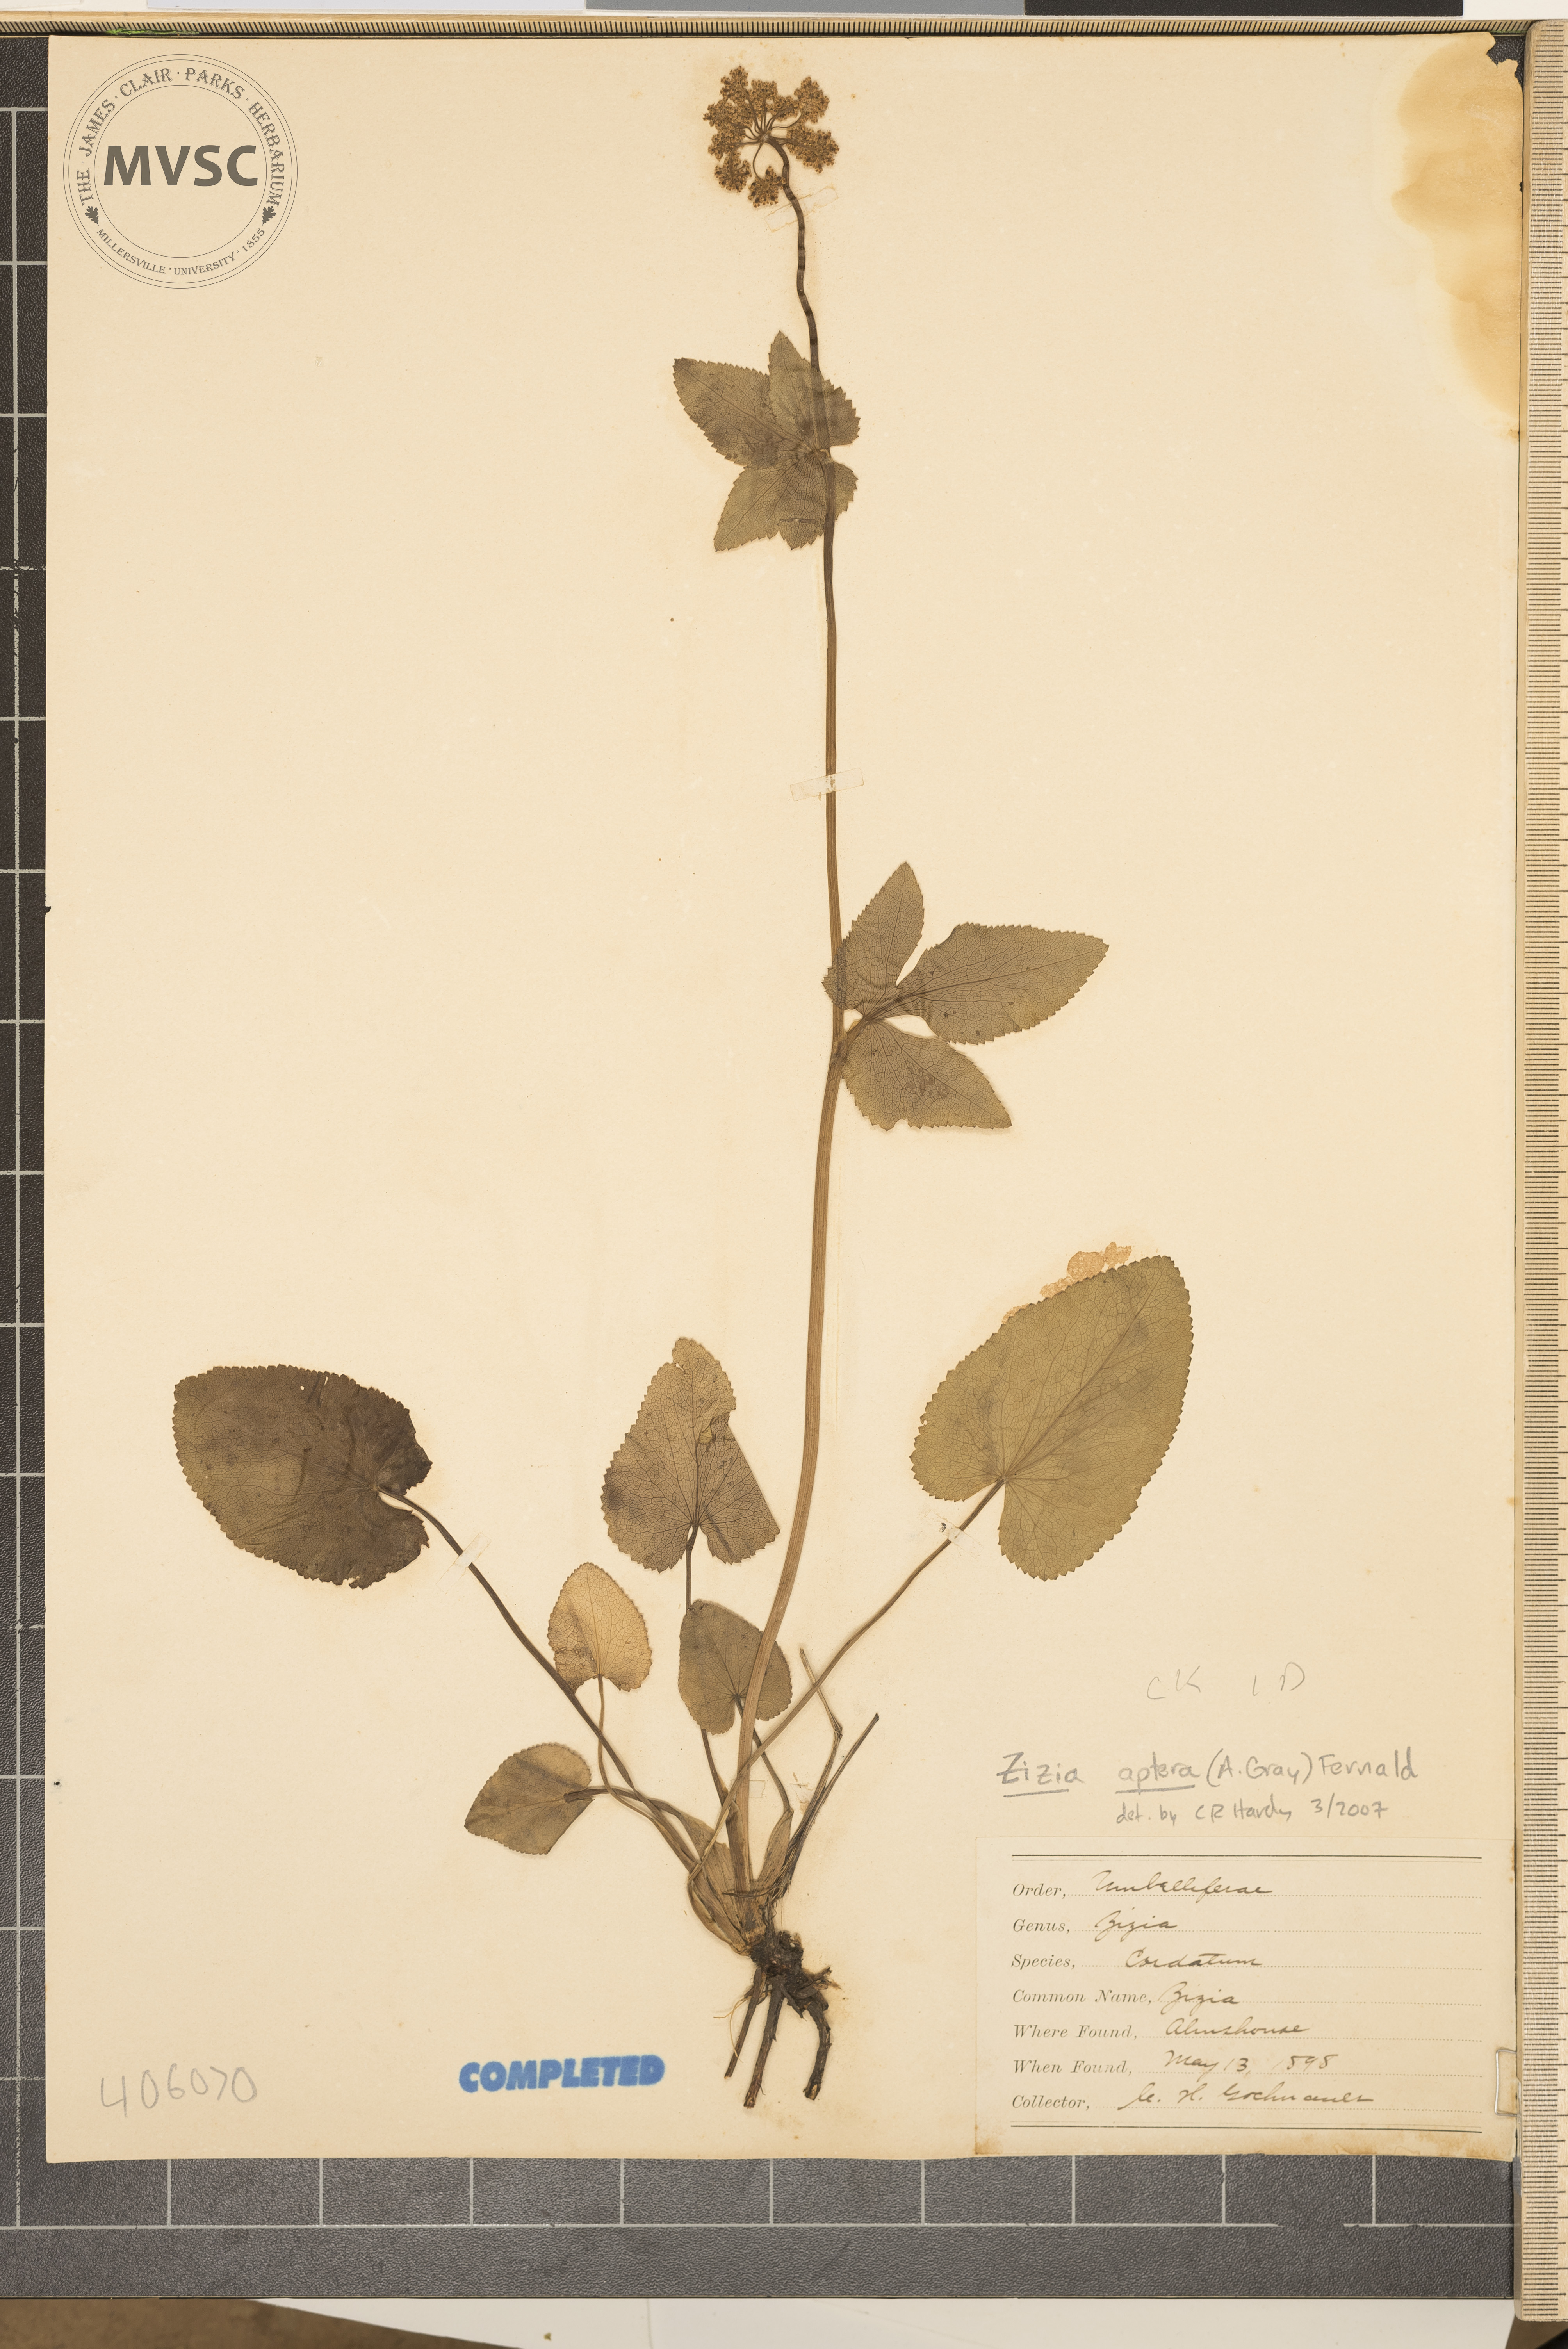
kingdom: Plantae
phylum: Tracheophyta
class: Magnoliopsida
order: Apiales
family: Apiaceae
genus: Zizia
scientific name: Zizia aptera
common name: Heart-leaved alexanders
